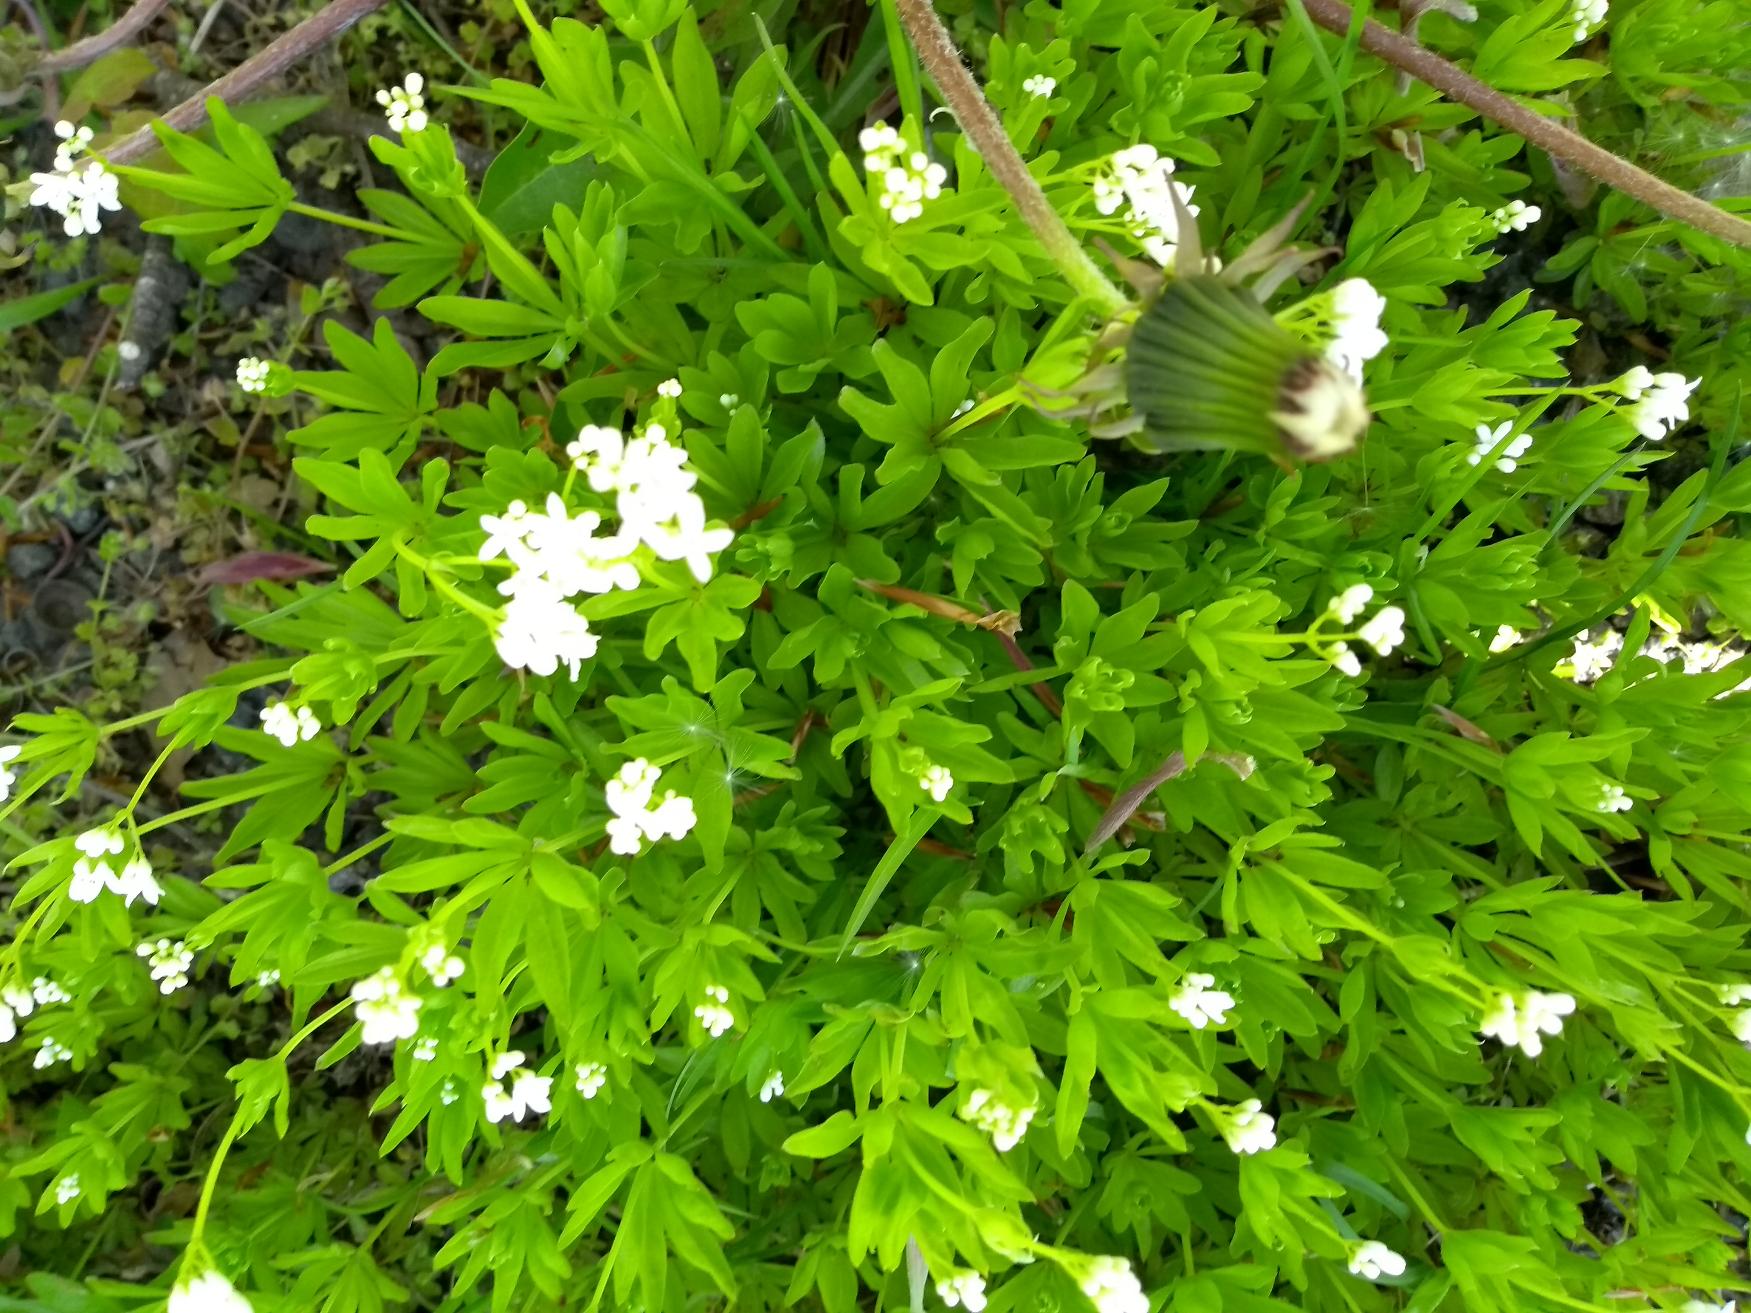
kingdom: Plantae
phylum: Tracheophyta
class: Magnoliopsida
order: Gentianales
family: Rubiaceae
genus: Galium
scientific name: Galium odoratum
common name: Skovmærke
